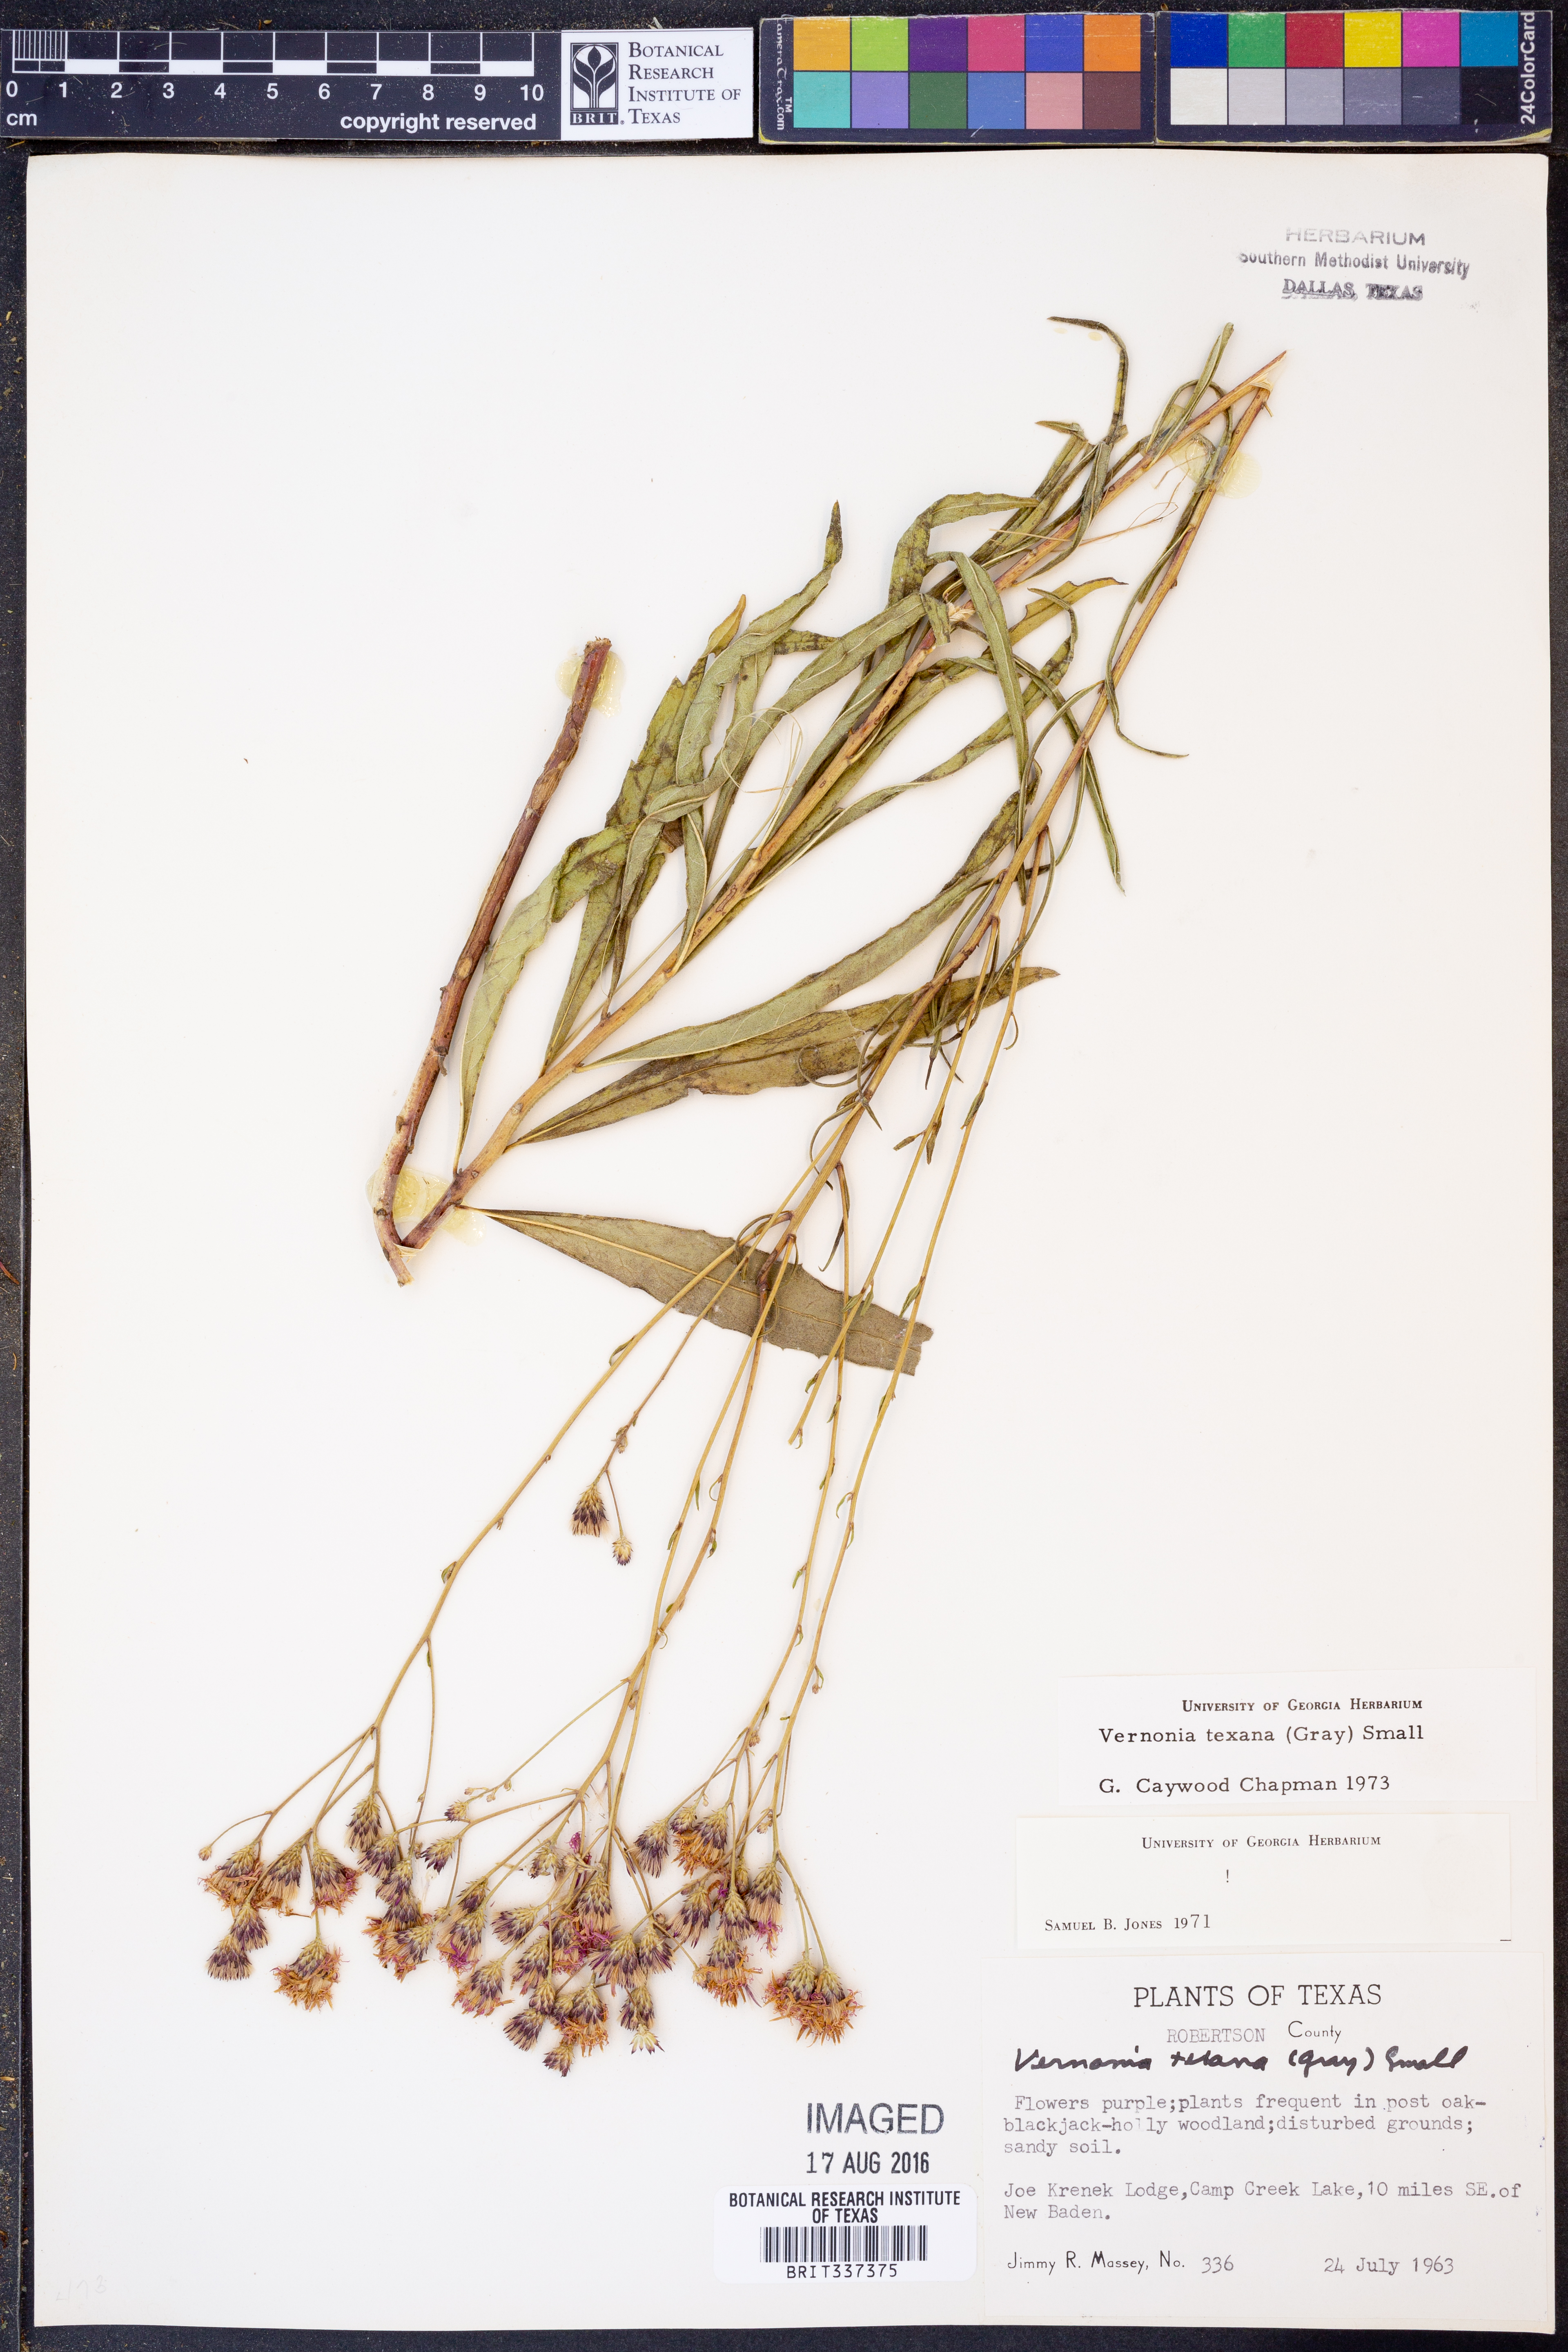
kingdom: Plantae
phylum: Tracheophyta
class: Magnoliopsida
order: Asterales
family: Asteraceae
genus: Vernonia
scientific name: Vernonia texana
